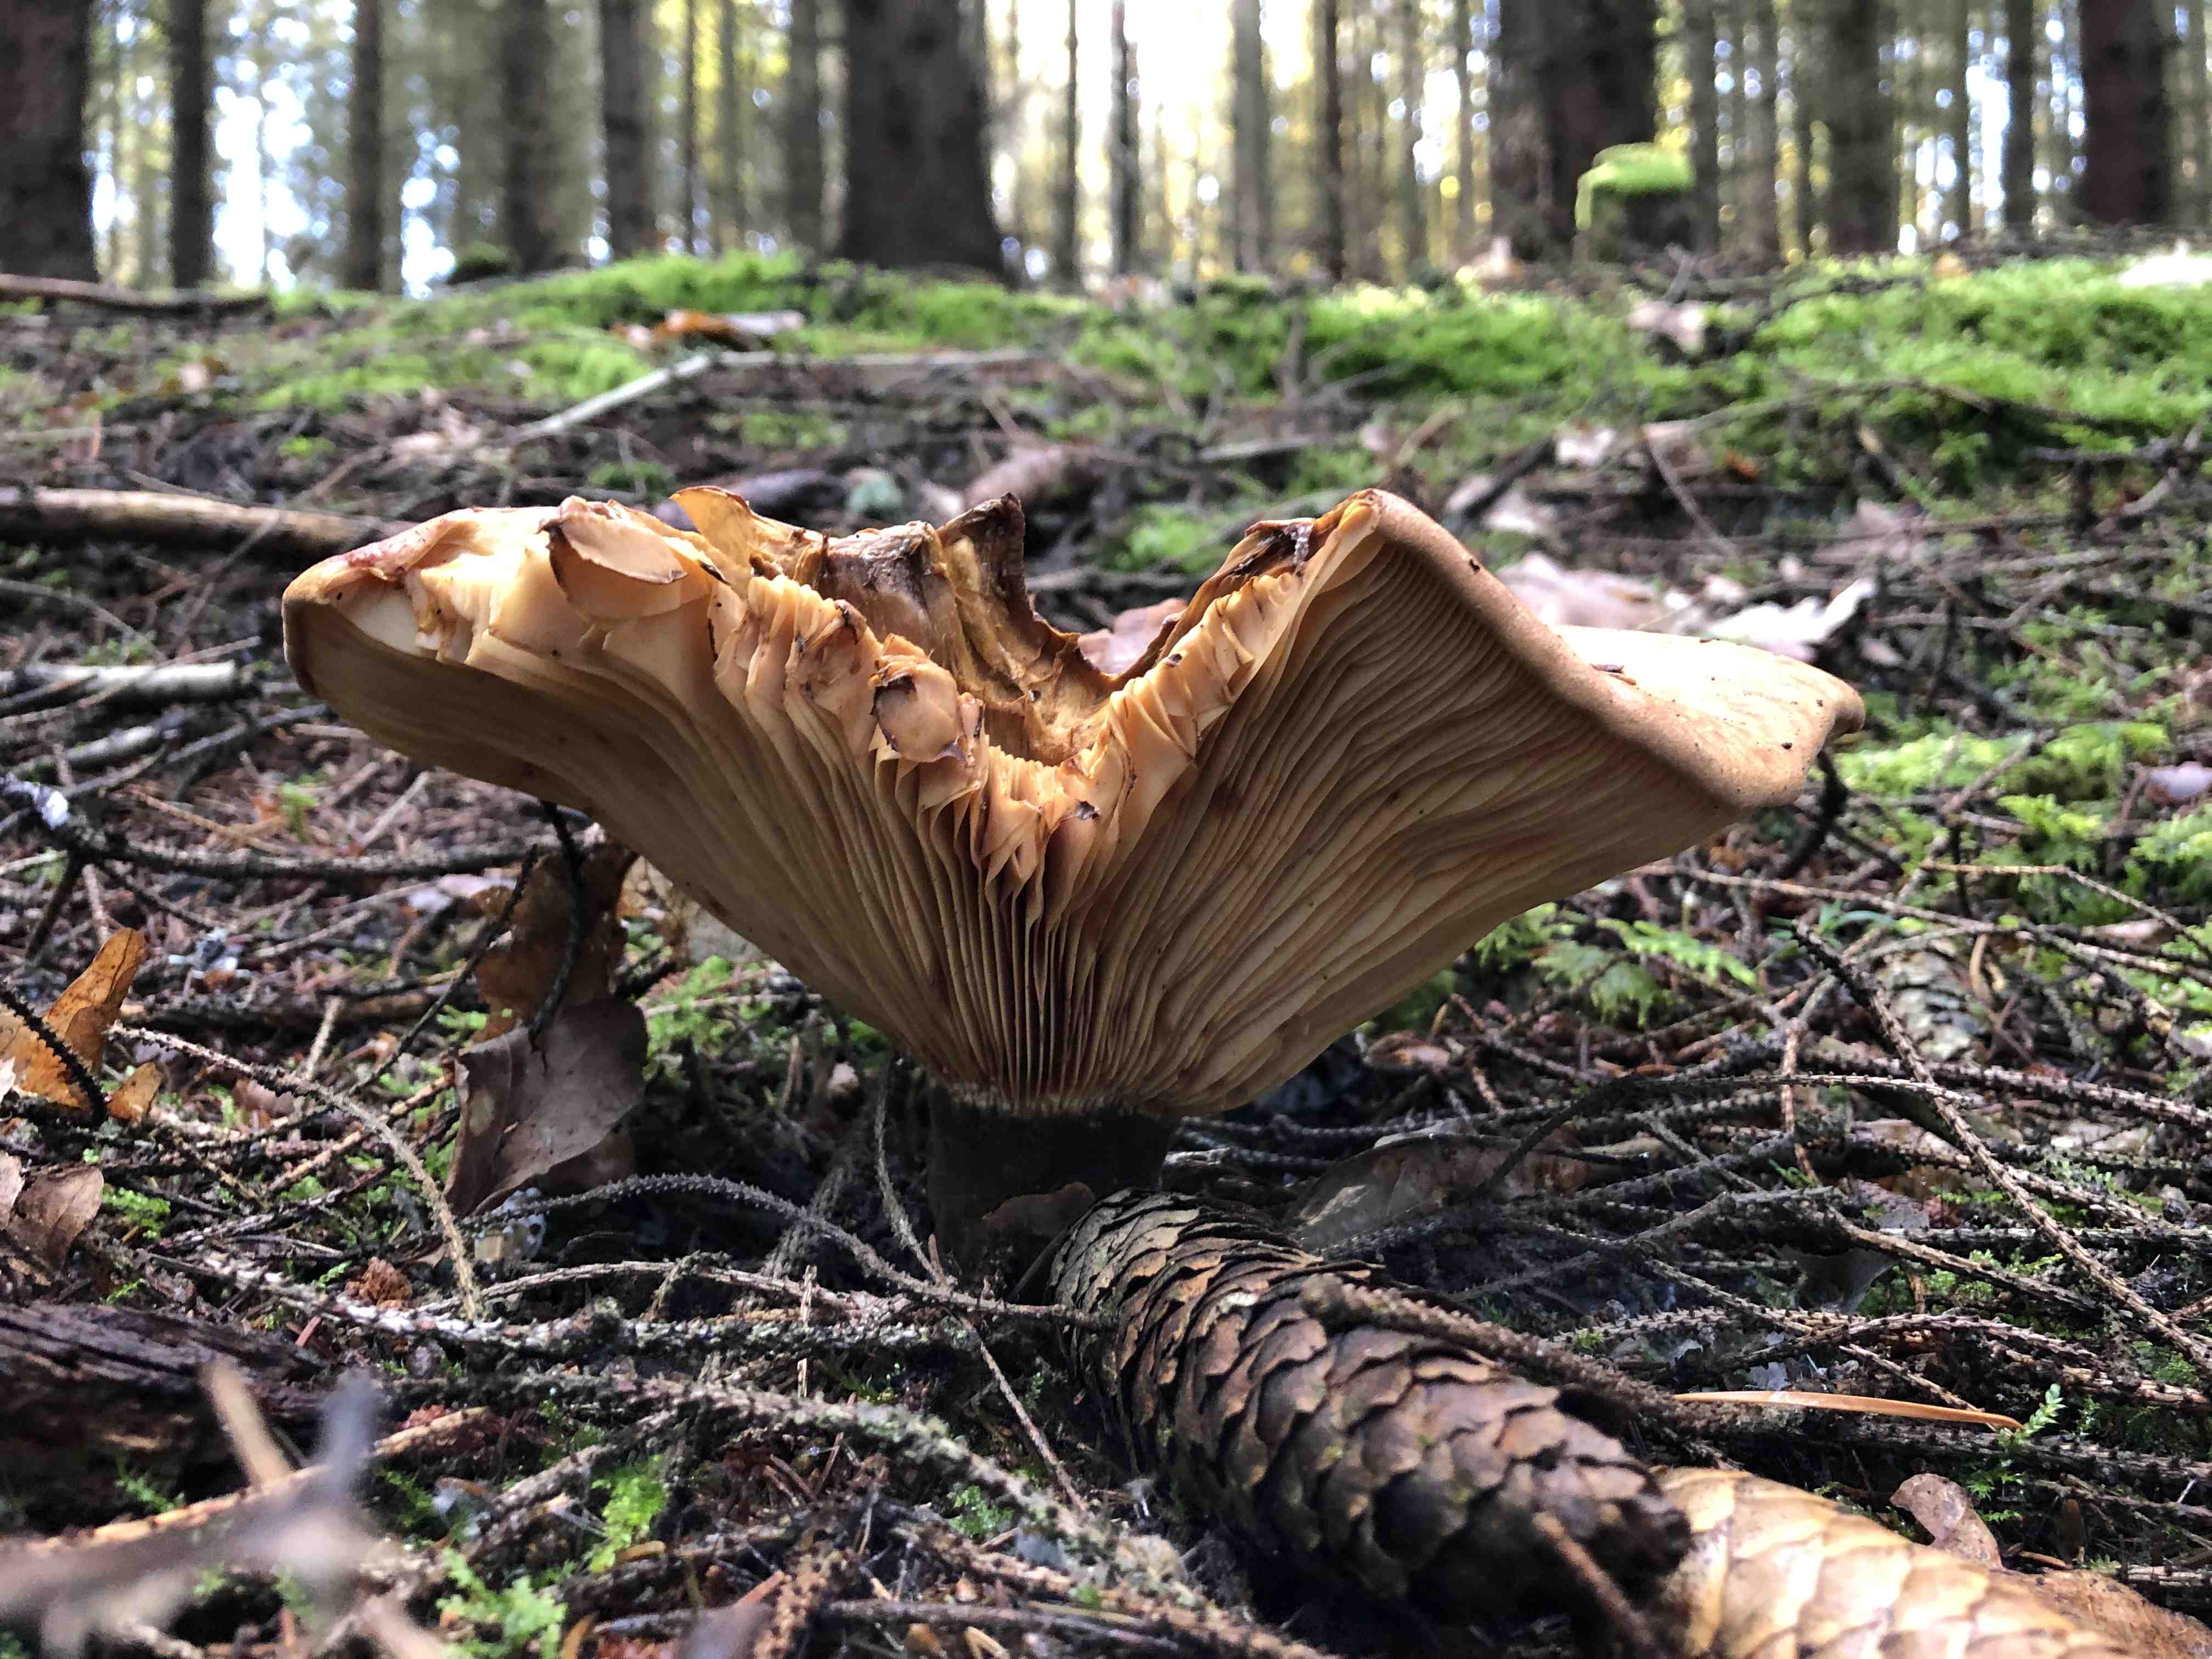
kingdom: Fungi
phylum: Basidiomycota
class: Agaricomycetes
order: Boletales
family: Tapinellaceae
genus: Tapinella
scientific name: Tapinella atrotomentosa
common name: sortfiltet viftesvamp
